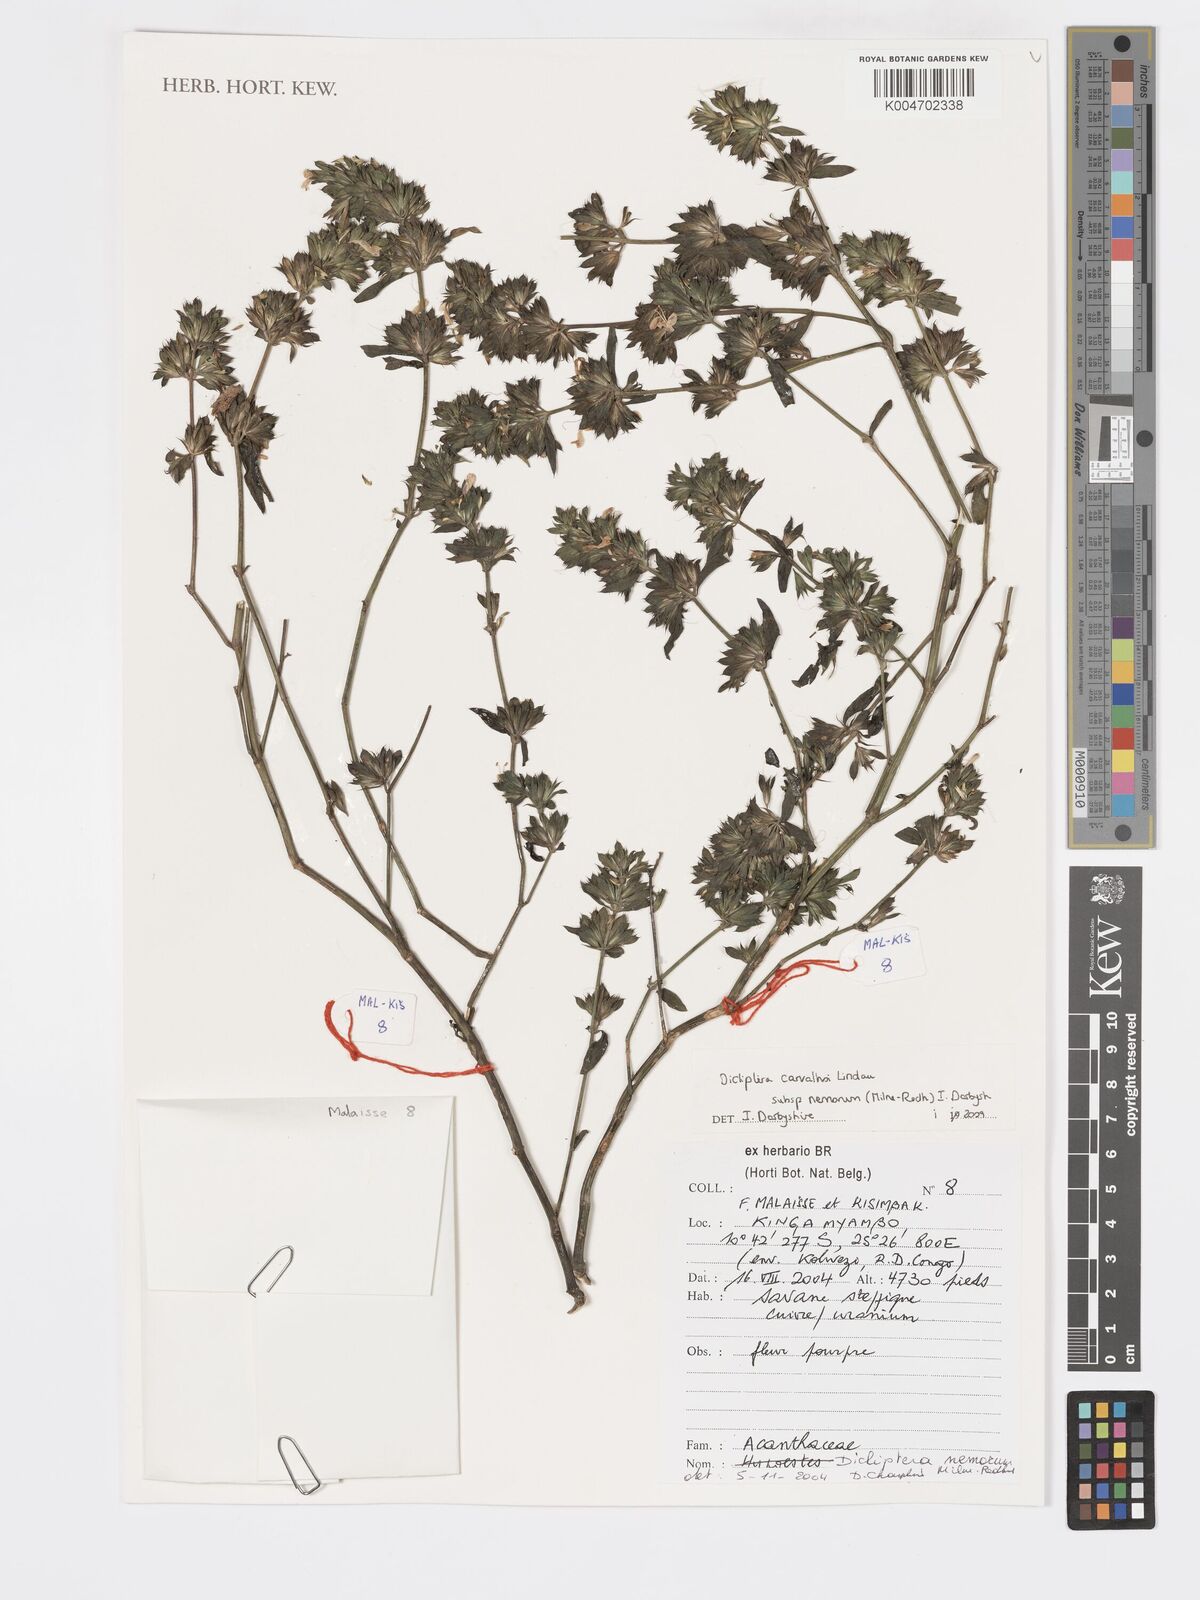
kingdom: Plantae
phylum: Tracheophyta
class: Magnoliopsida
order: Lamiales
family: Acanthaceae
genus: Dicliptera
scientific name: Dicliptera carvalhoi
